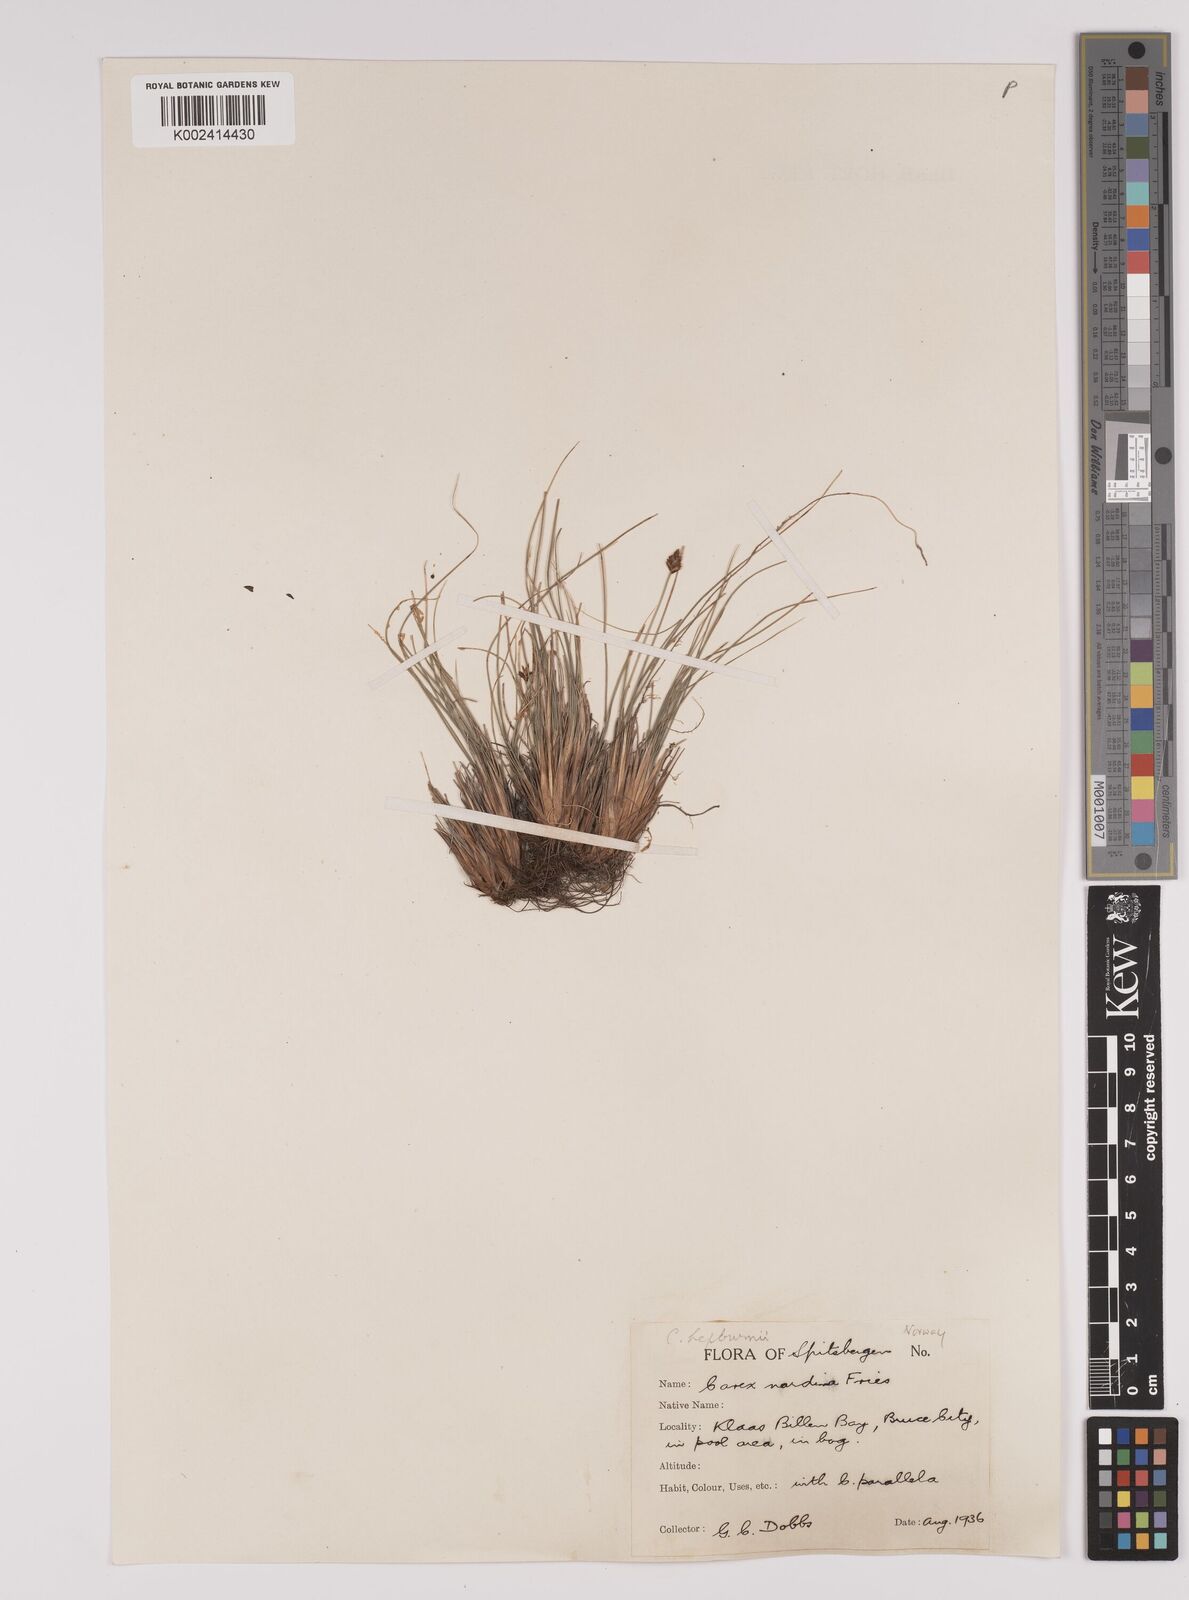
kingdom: Plantae
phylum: Tracheophyta
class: Liliopsida
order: Poales
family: Cyperaceae
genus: Carex
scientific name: Carex nardina
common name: Nard sedge
